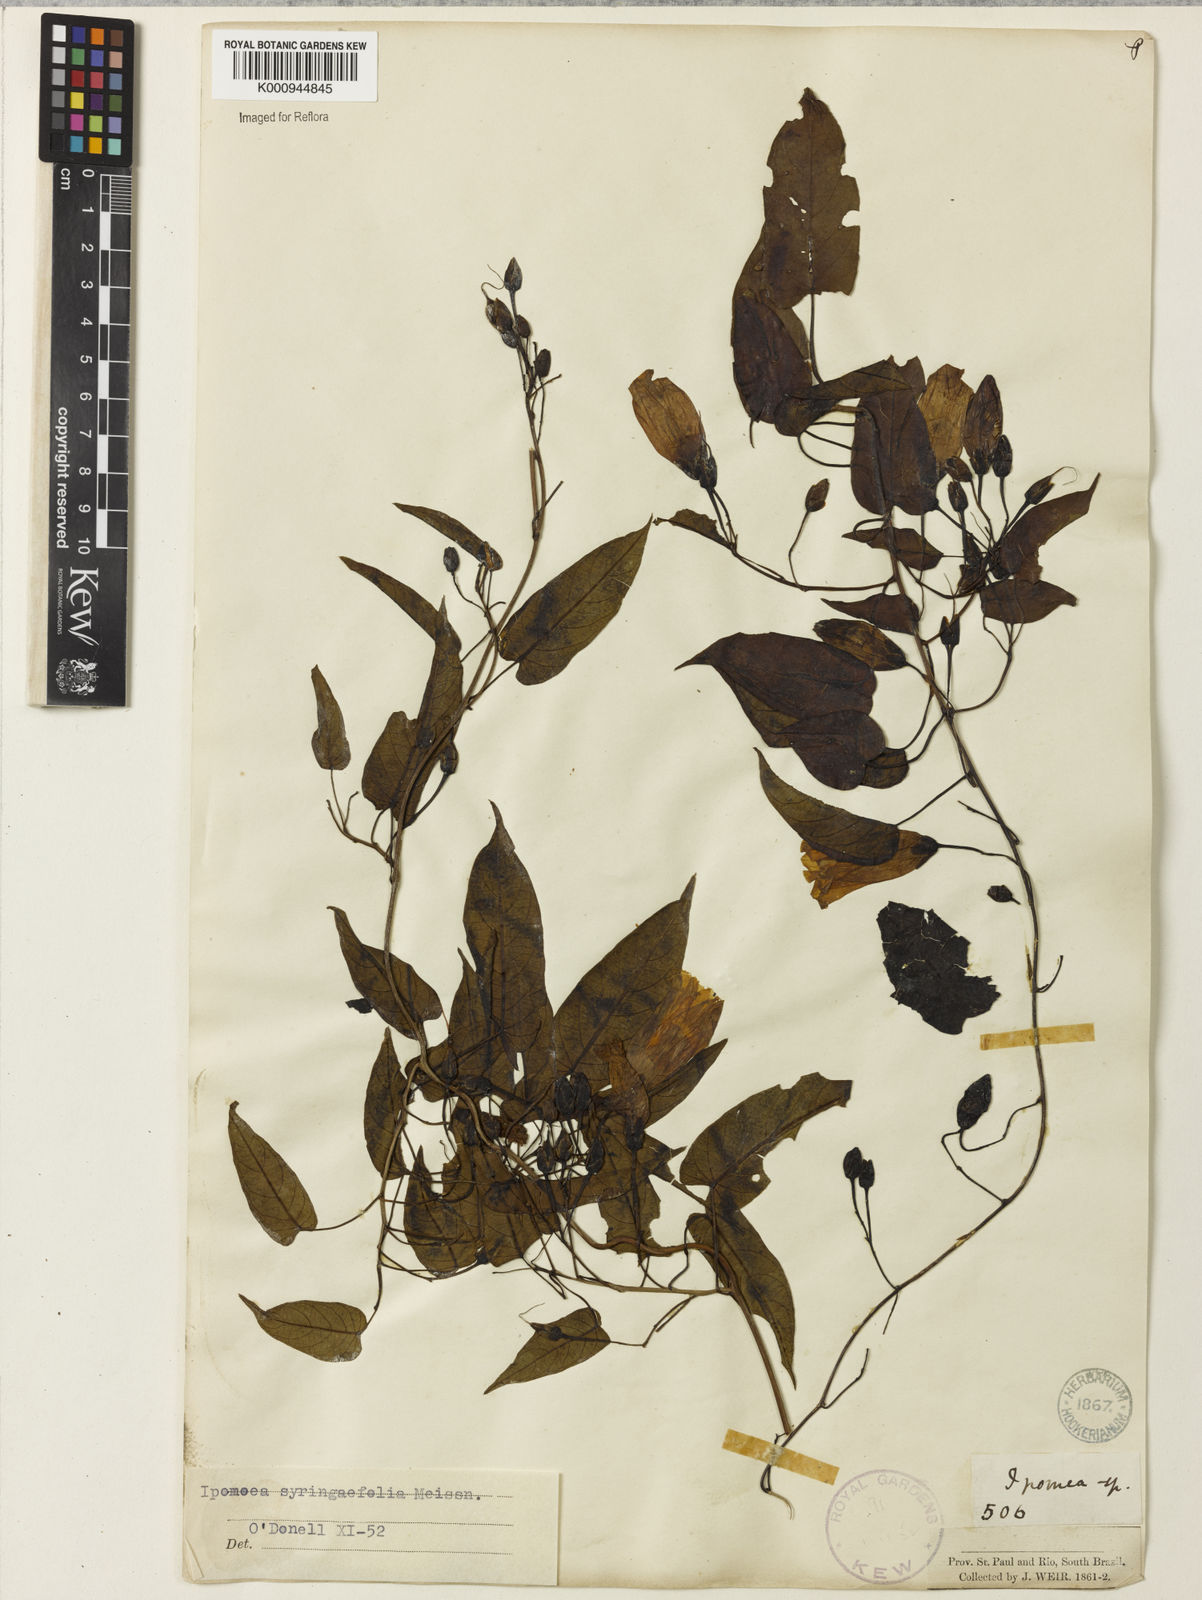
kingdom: Plantae
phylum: Tracheophyta
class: Magnoliopsida
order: Solanales
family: Convolvulaceae
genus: Ipomoea
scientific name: Ipomoea
